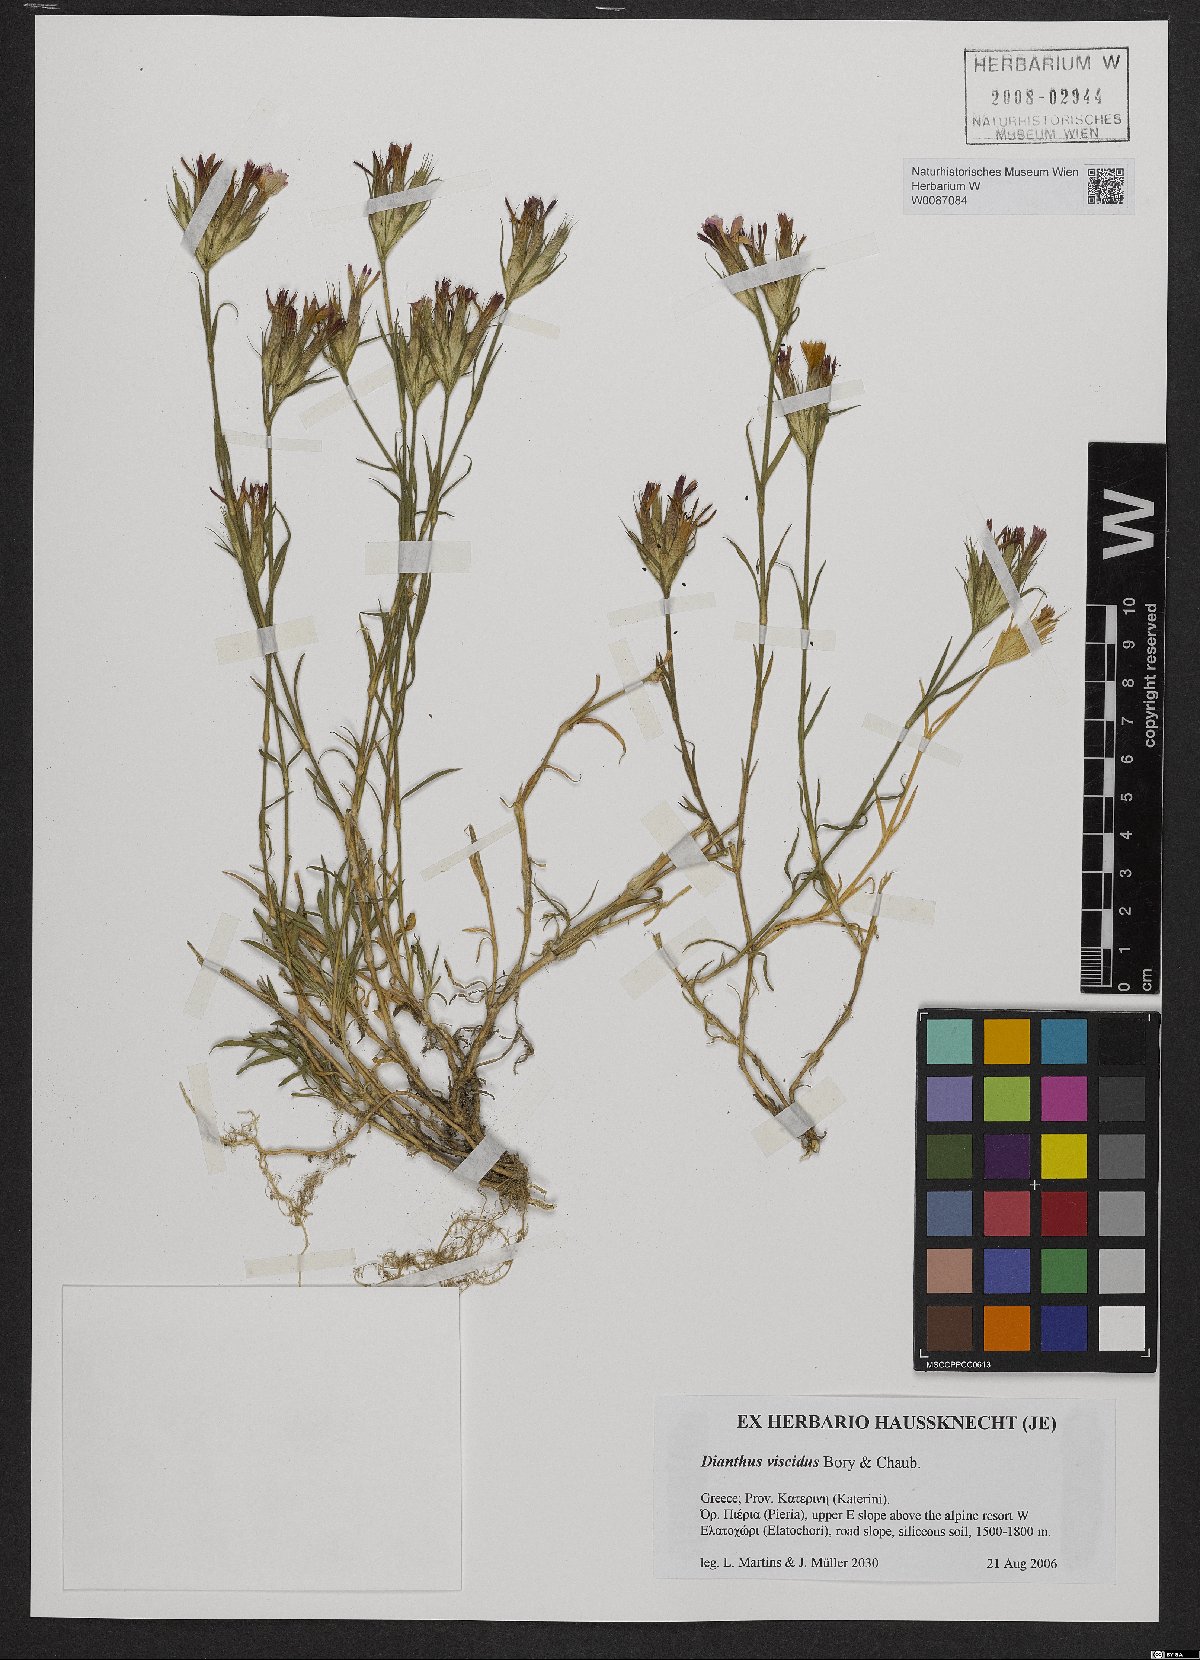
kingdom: Plantae
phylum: Tracheophyta
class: Magnoliopsida
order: Caryophyllales
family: Caryophyllaceae
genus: Dianthus
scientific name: Dianthus viscidus
